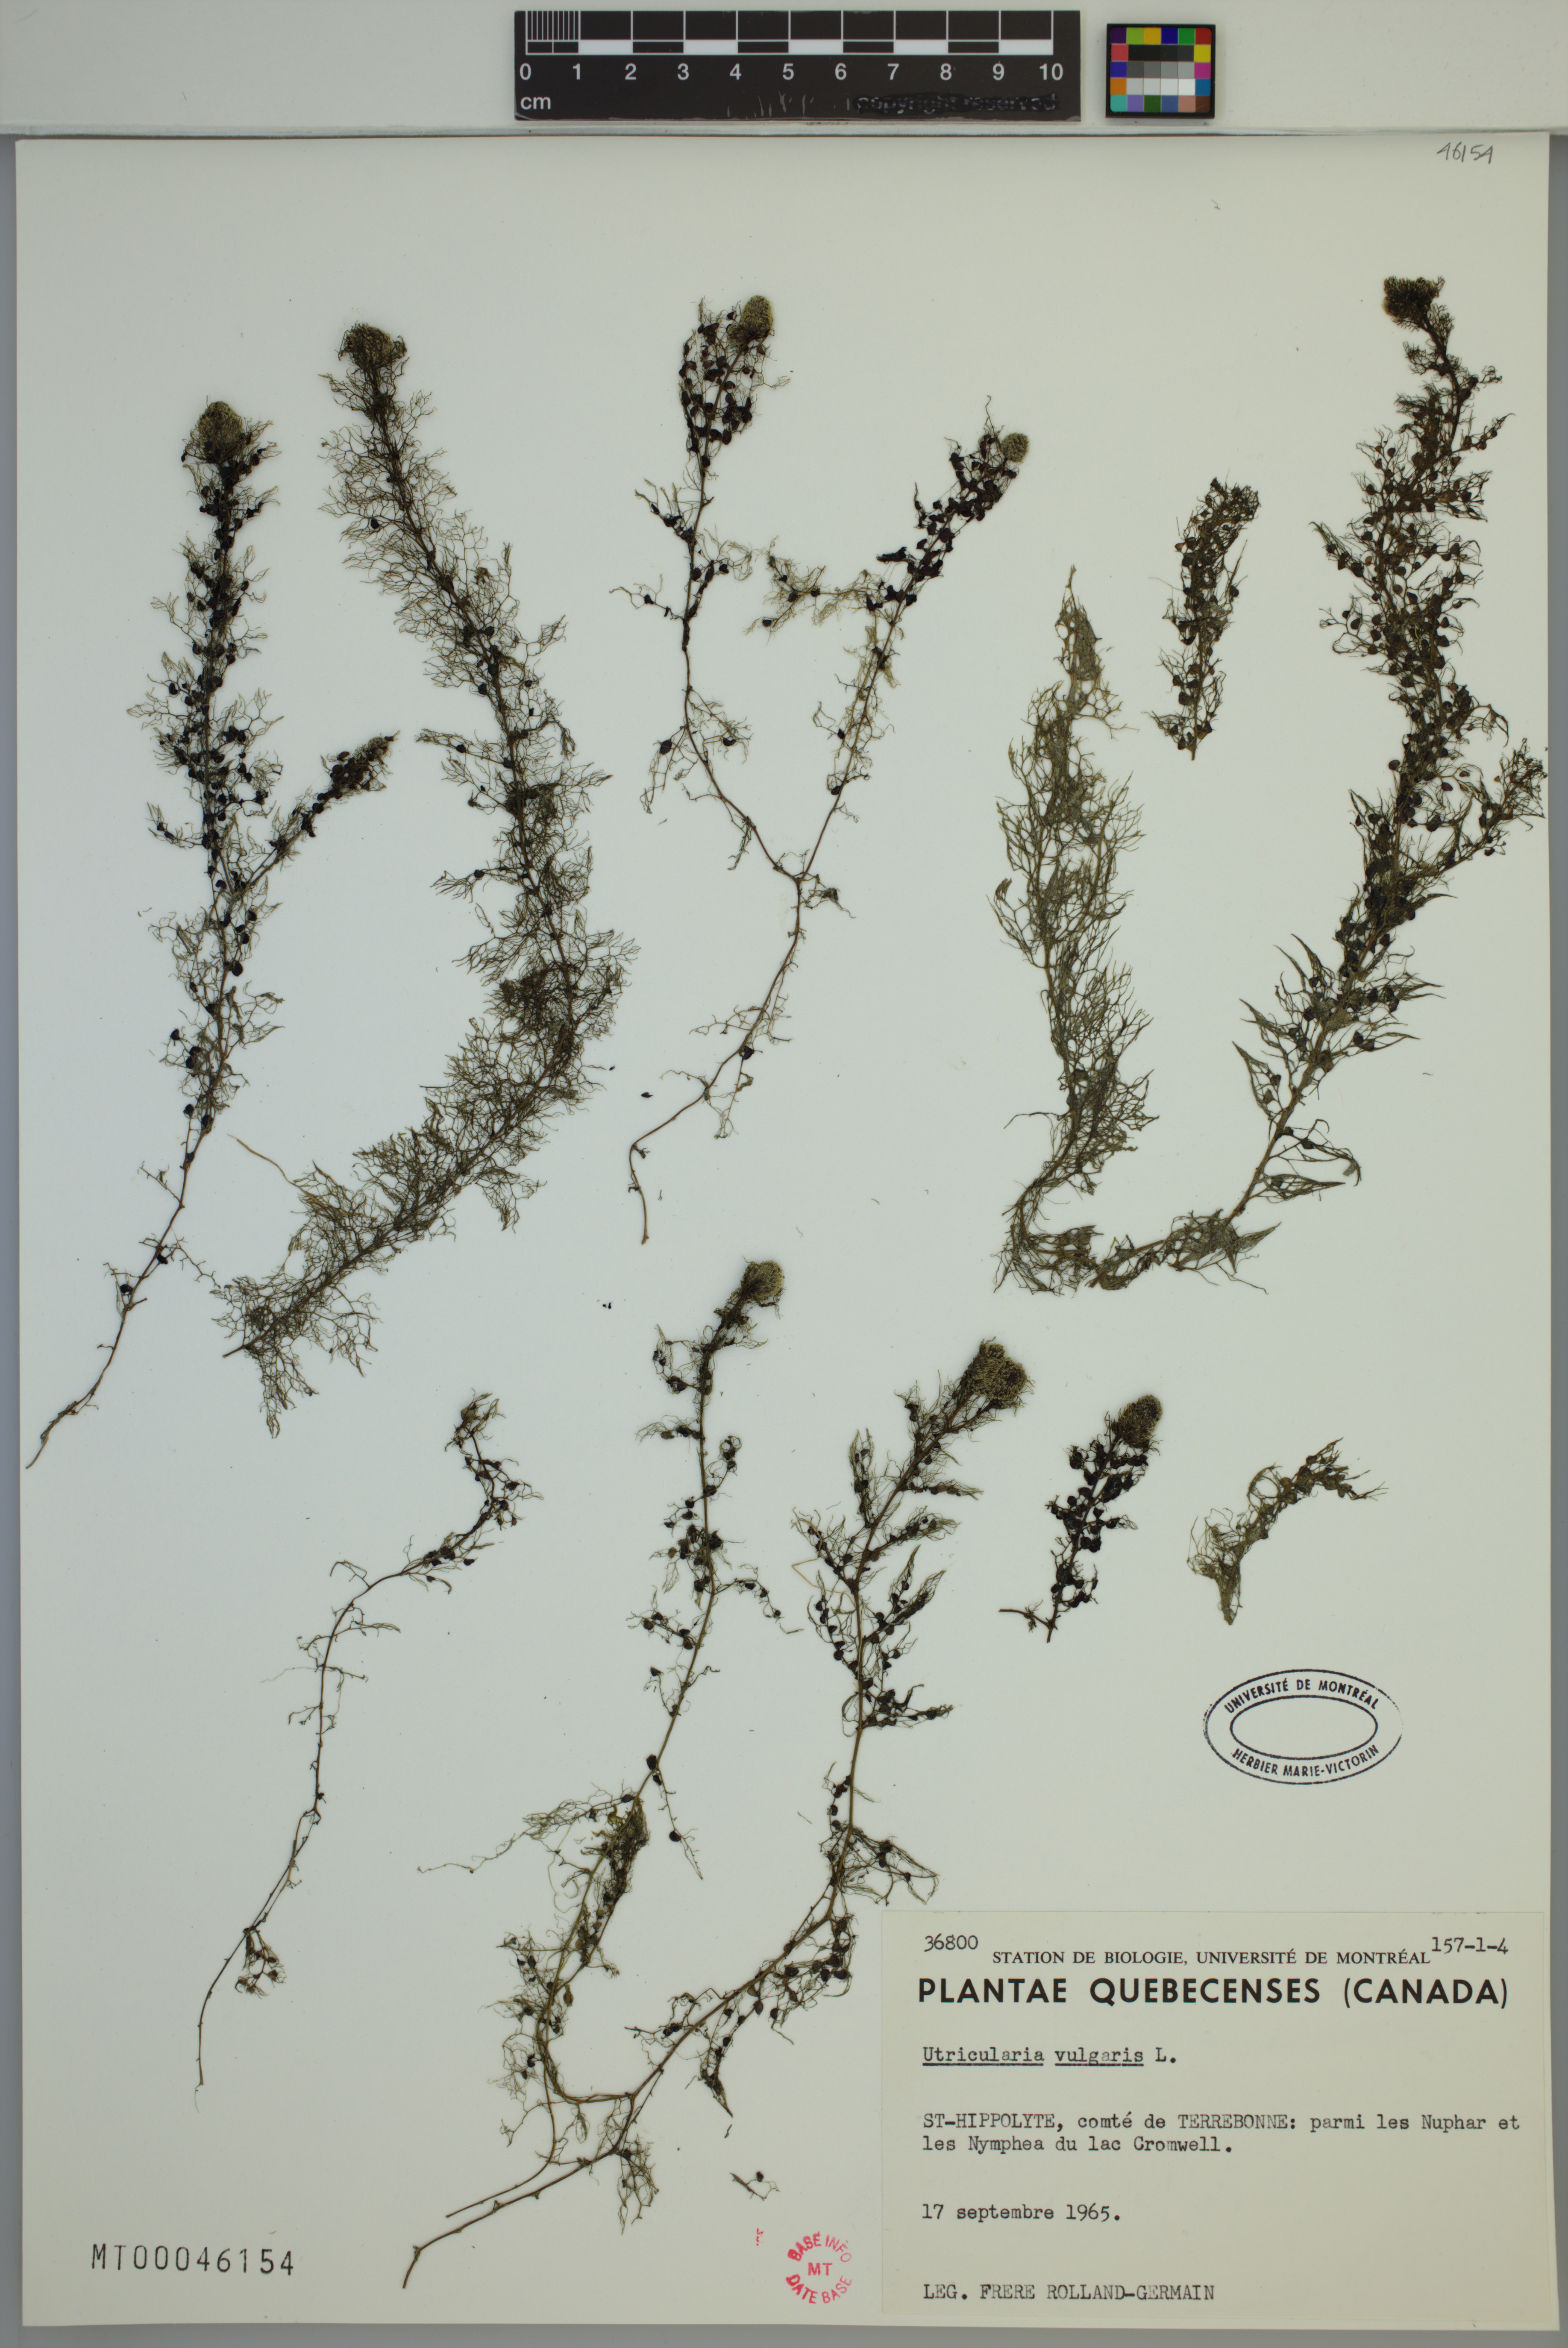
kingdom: Plantae
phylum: Tracheophyta
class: Magnoliopsida
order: Lamiales
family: Lentibulariaceae
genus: Utricularia
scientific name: Utricularia macrorhiza
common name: Common bladderwort
